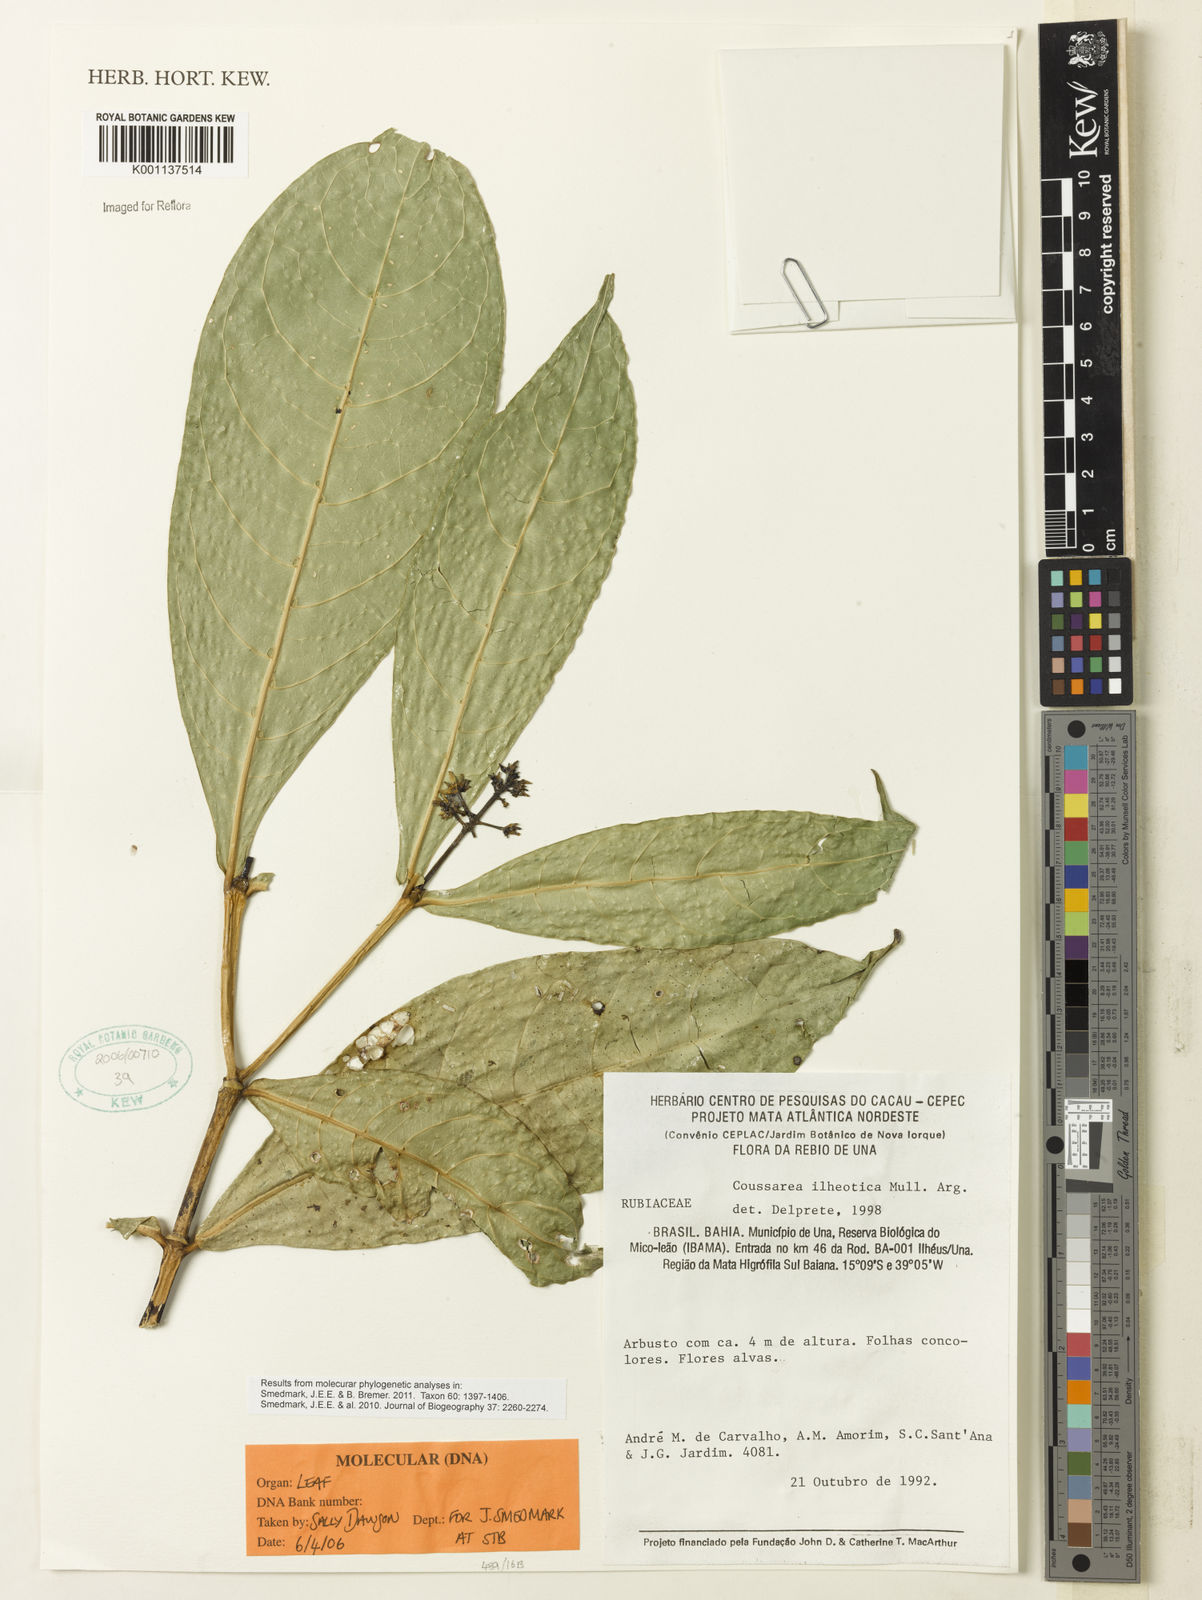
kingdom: Plantae
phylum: Tracheophyta
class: Magnoliopsida
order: Gentianales
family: Rubiaceae
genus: Coussarea
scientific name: Coussarea
